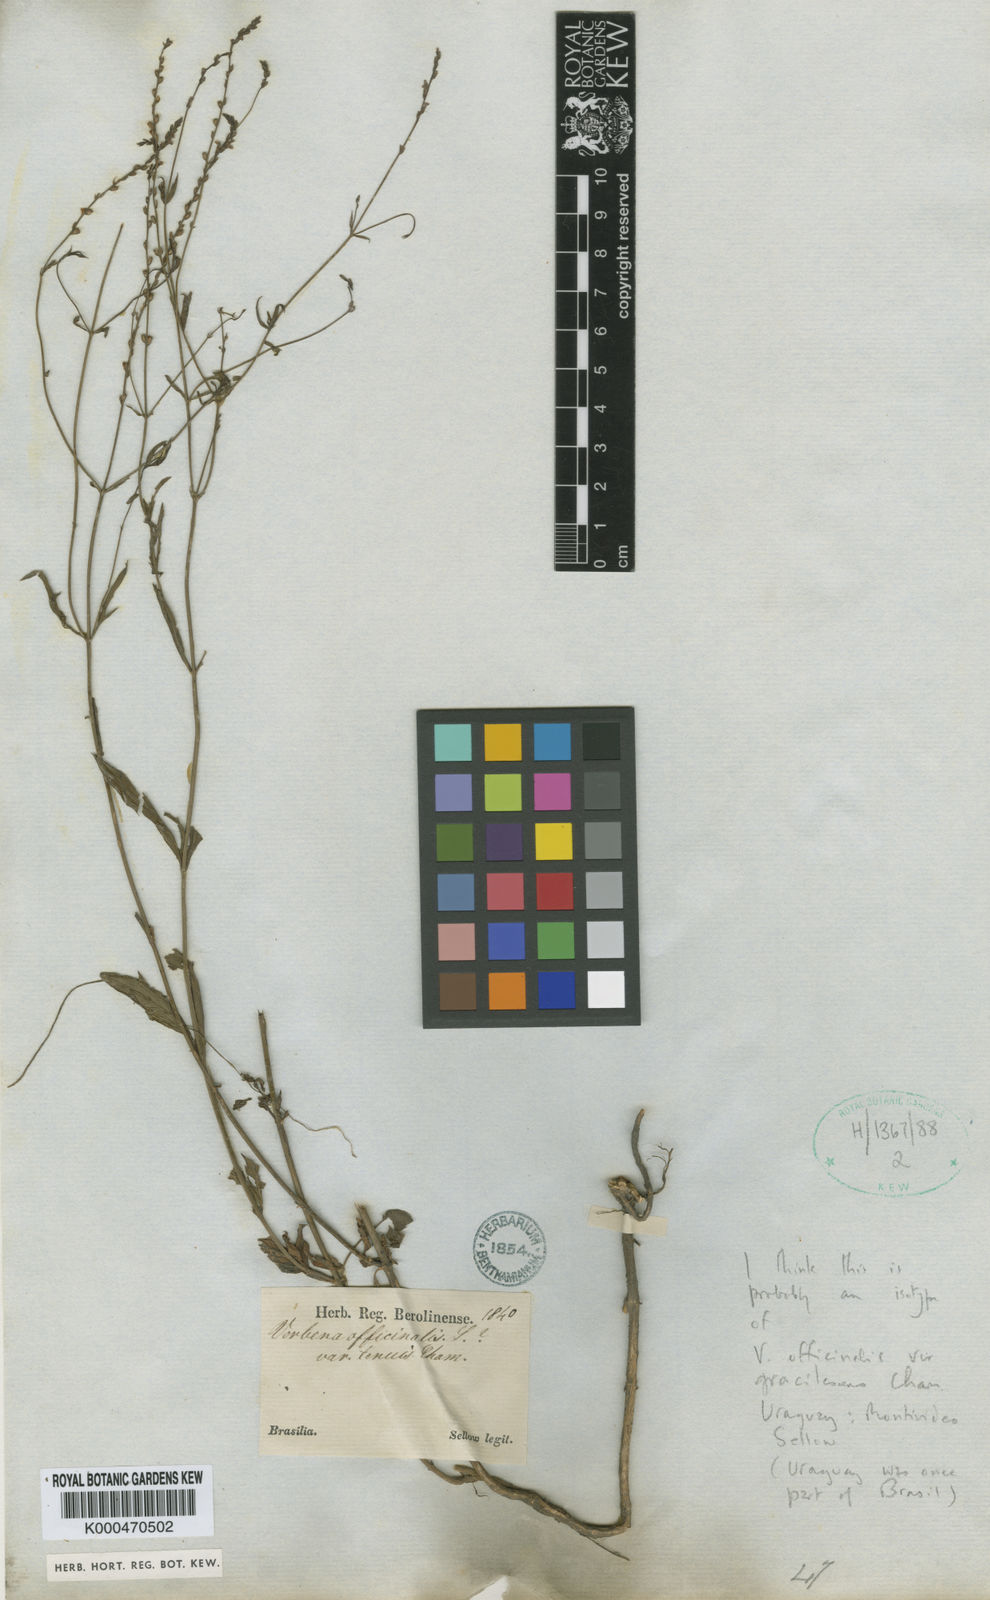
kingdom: Plantae
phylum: Tracheophyta
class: Magnoliopsida
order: Lamiales
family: Verbenaceae
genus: Verbena
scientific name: Verbena officinalis
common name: Vervain
